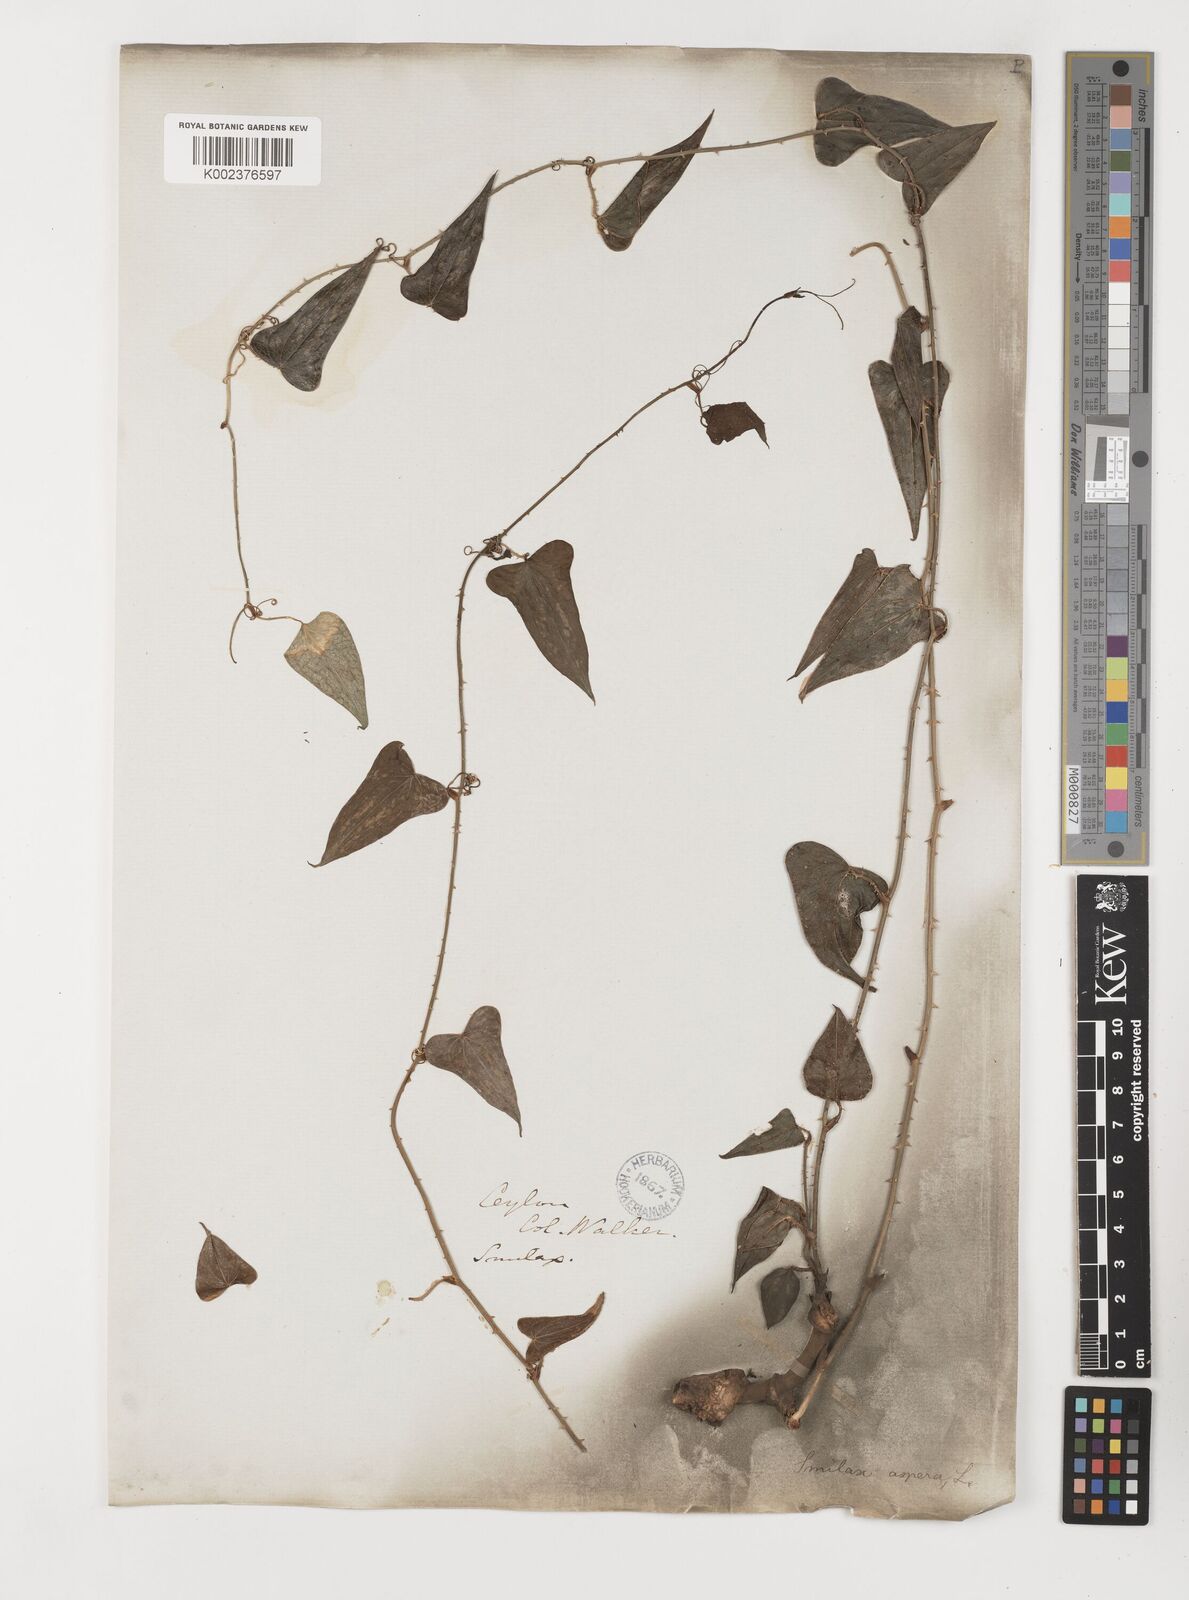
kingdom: Plantae
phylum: Tracheophyta
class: Liliopsida
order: Liliales
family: Smilacaceae
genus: Smilax
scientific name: Smilax aspera
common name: Common smilax
